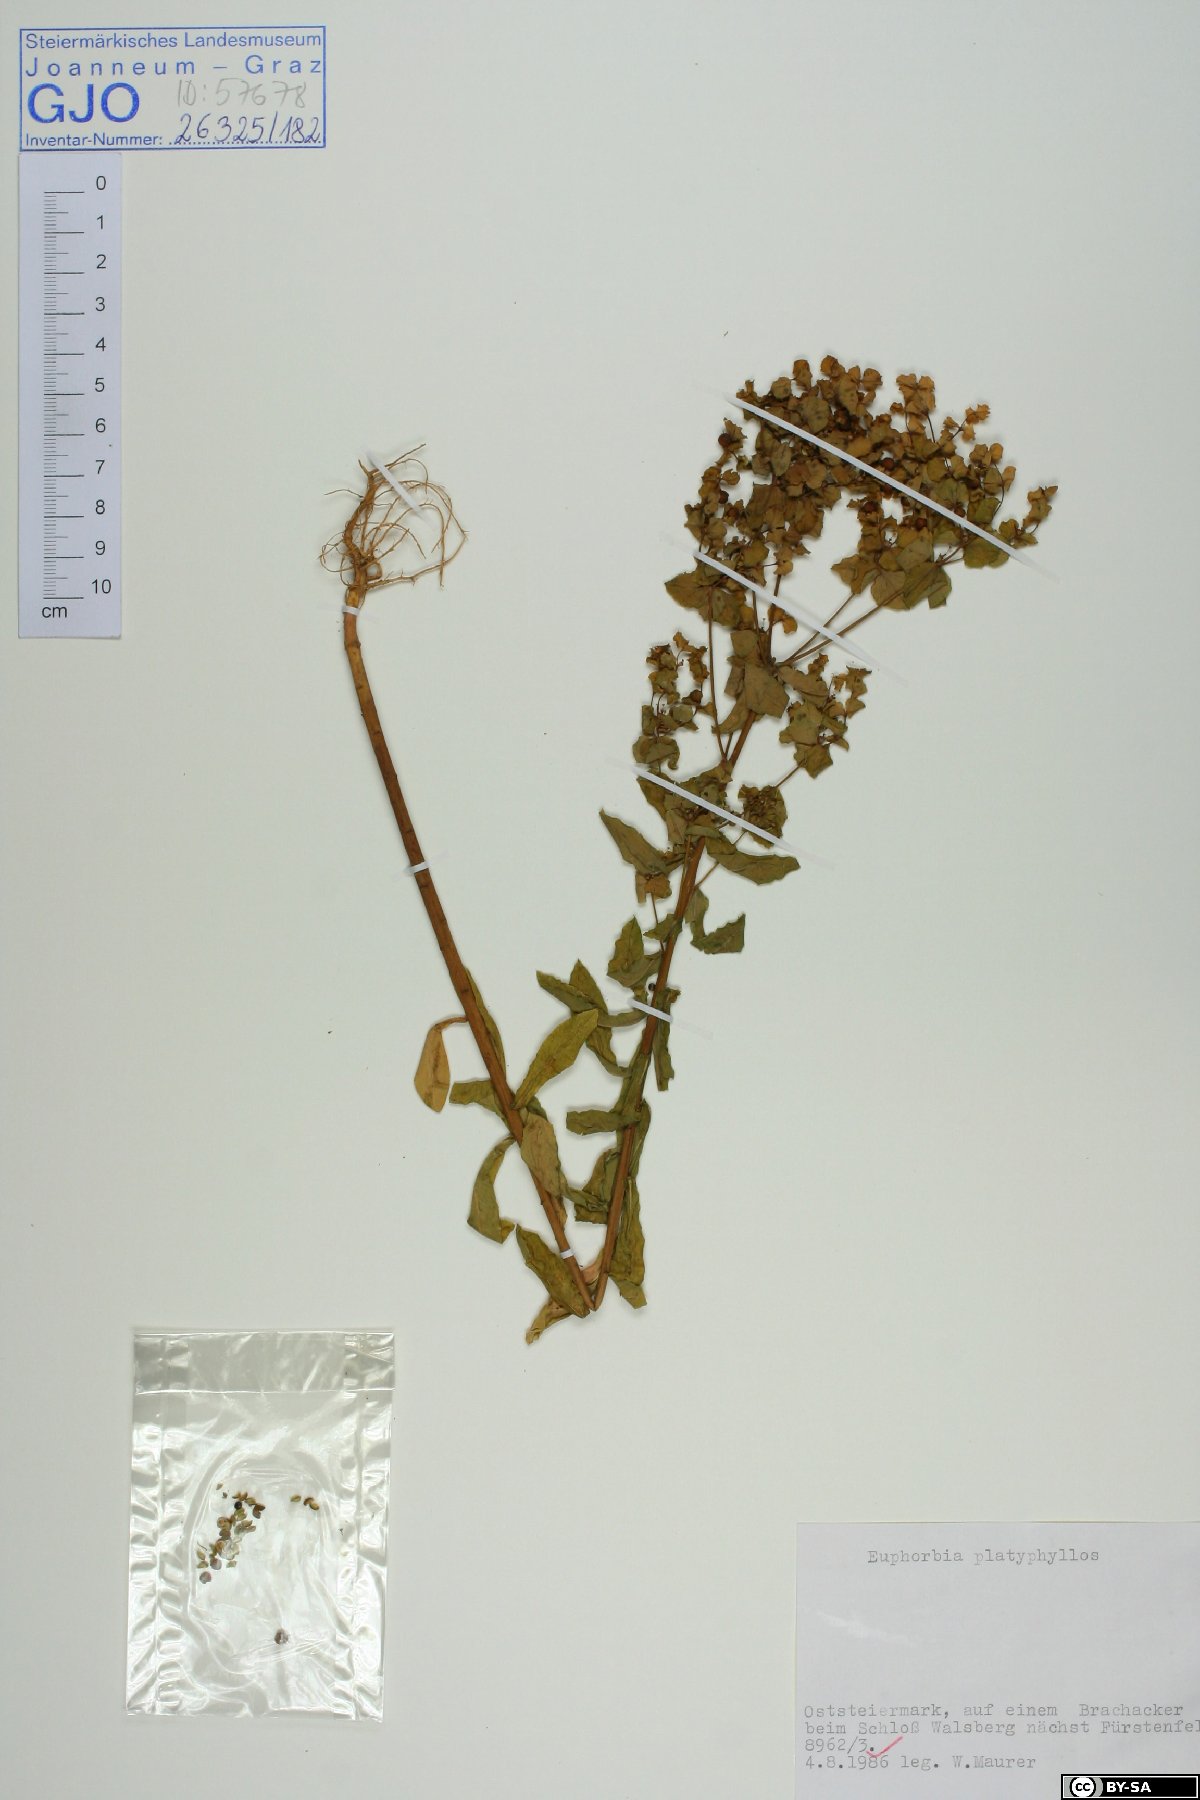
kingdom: Plantae
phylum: Tracheophyta
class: Magnoliopsida
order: Malpighiales
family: Euphorbiaceae
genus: Euphorbia
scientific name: Euphorbia platyphyllos
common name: Broad-leaved spurge
